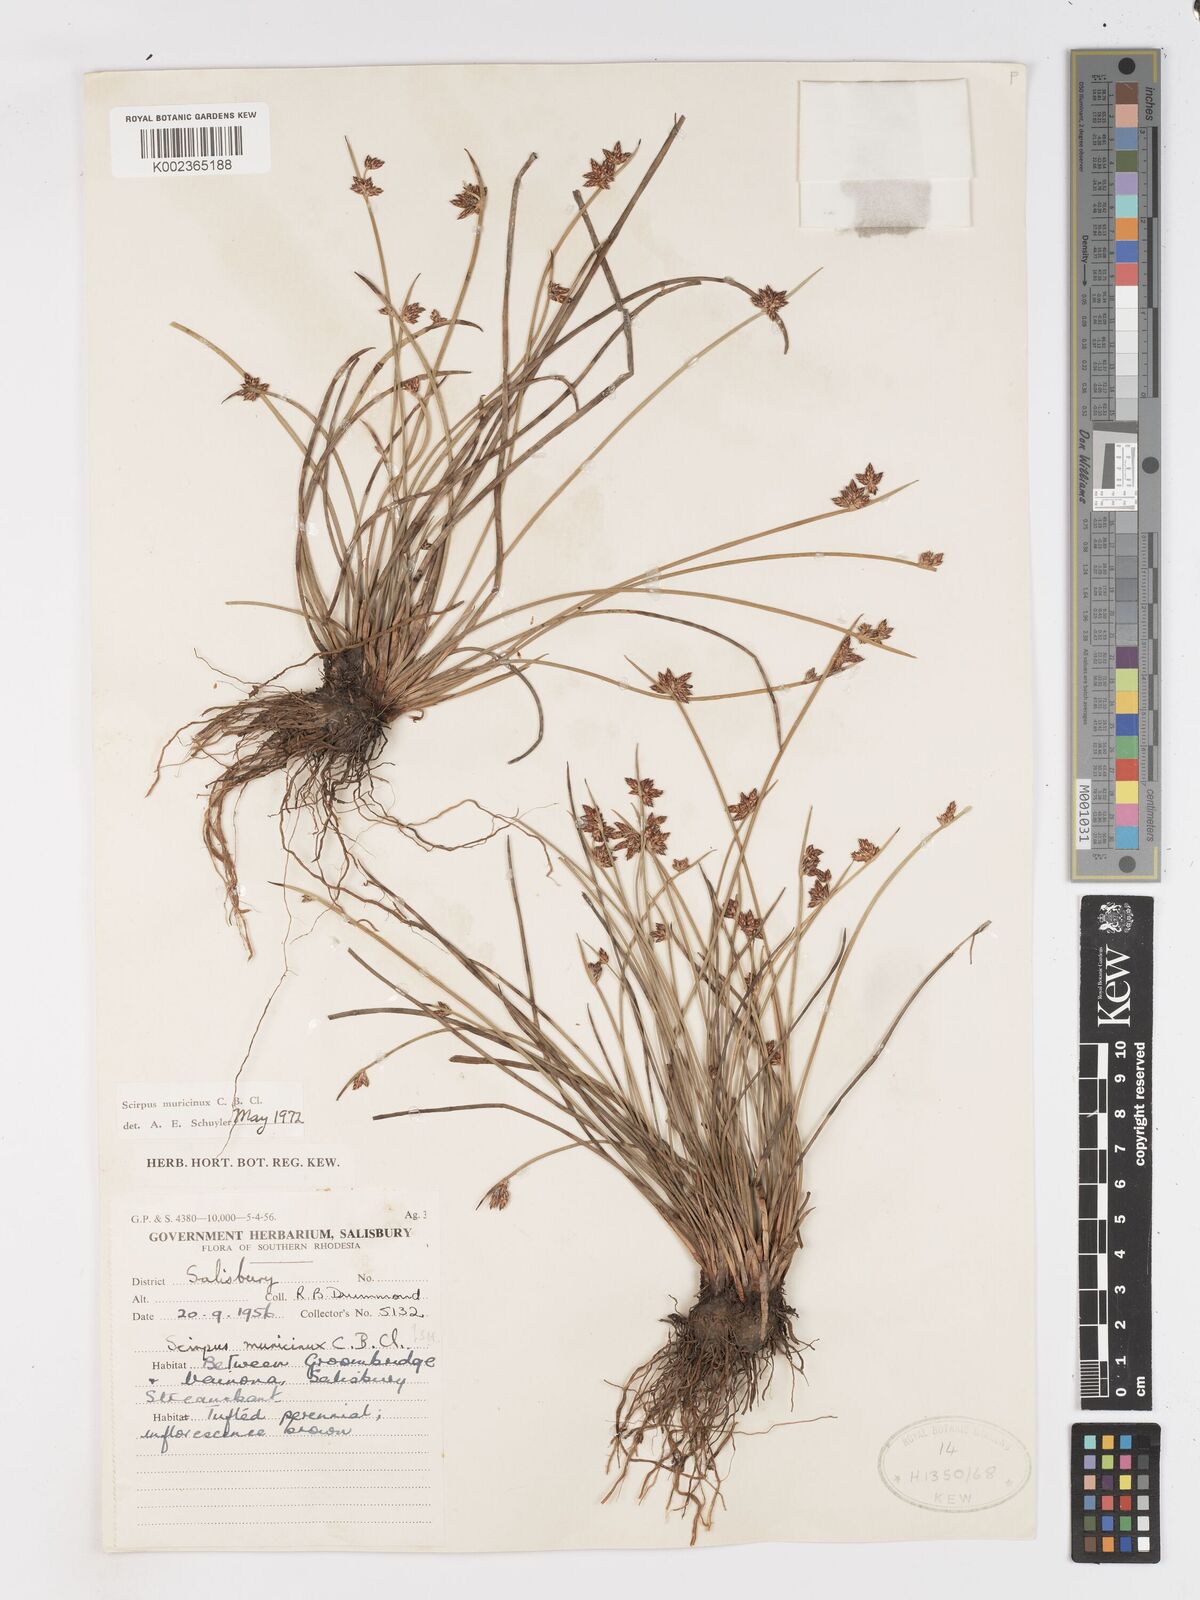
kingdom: Plantae
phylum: Tracheophyta
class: Liliopsida
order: Poales
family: Cyperaceae
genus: Schoenoplectiella
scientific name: Schoenoplectiella muricinux
